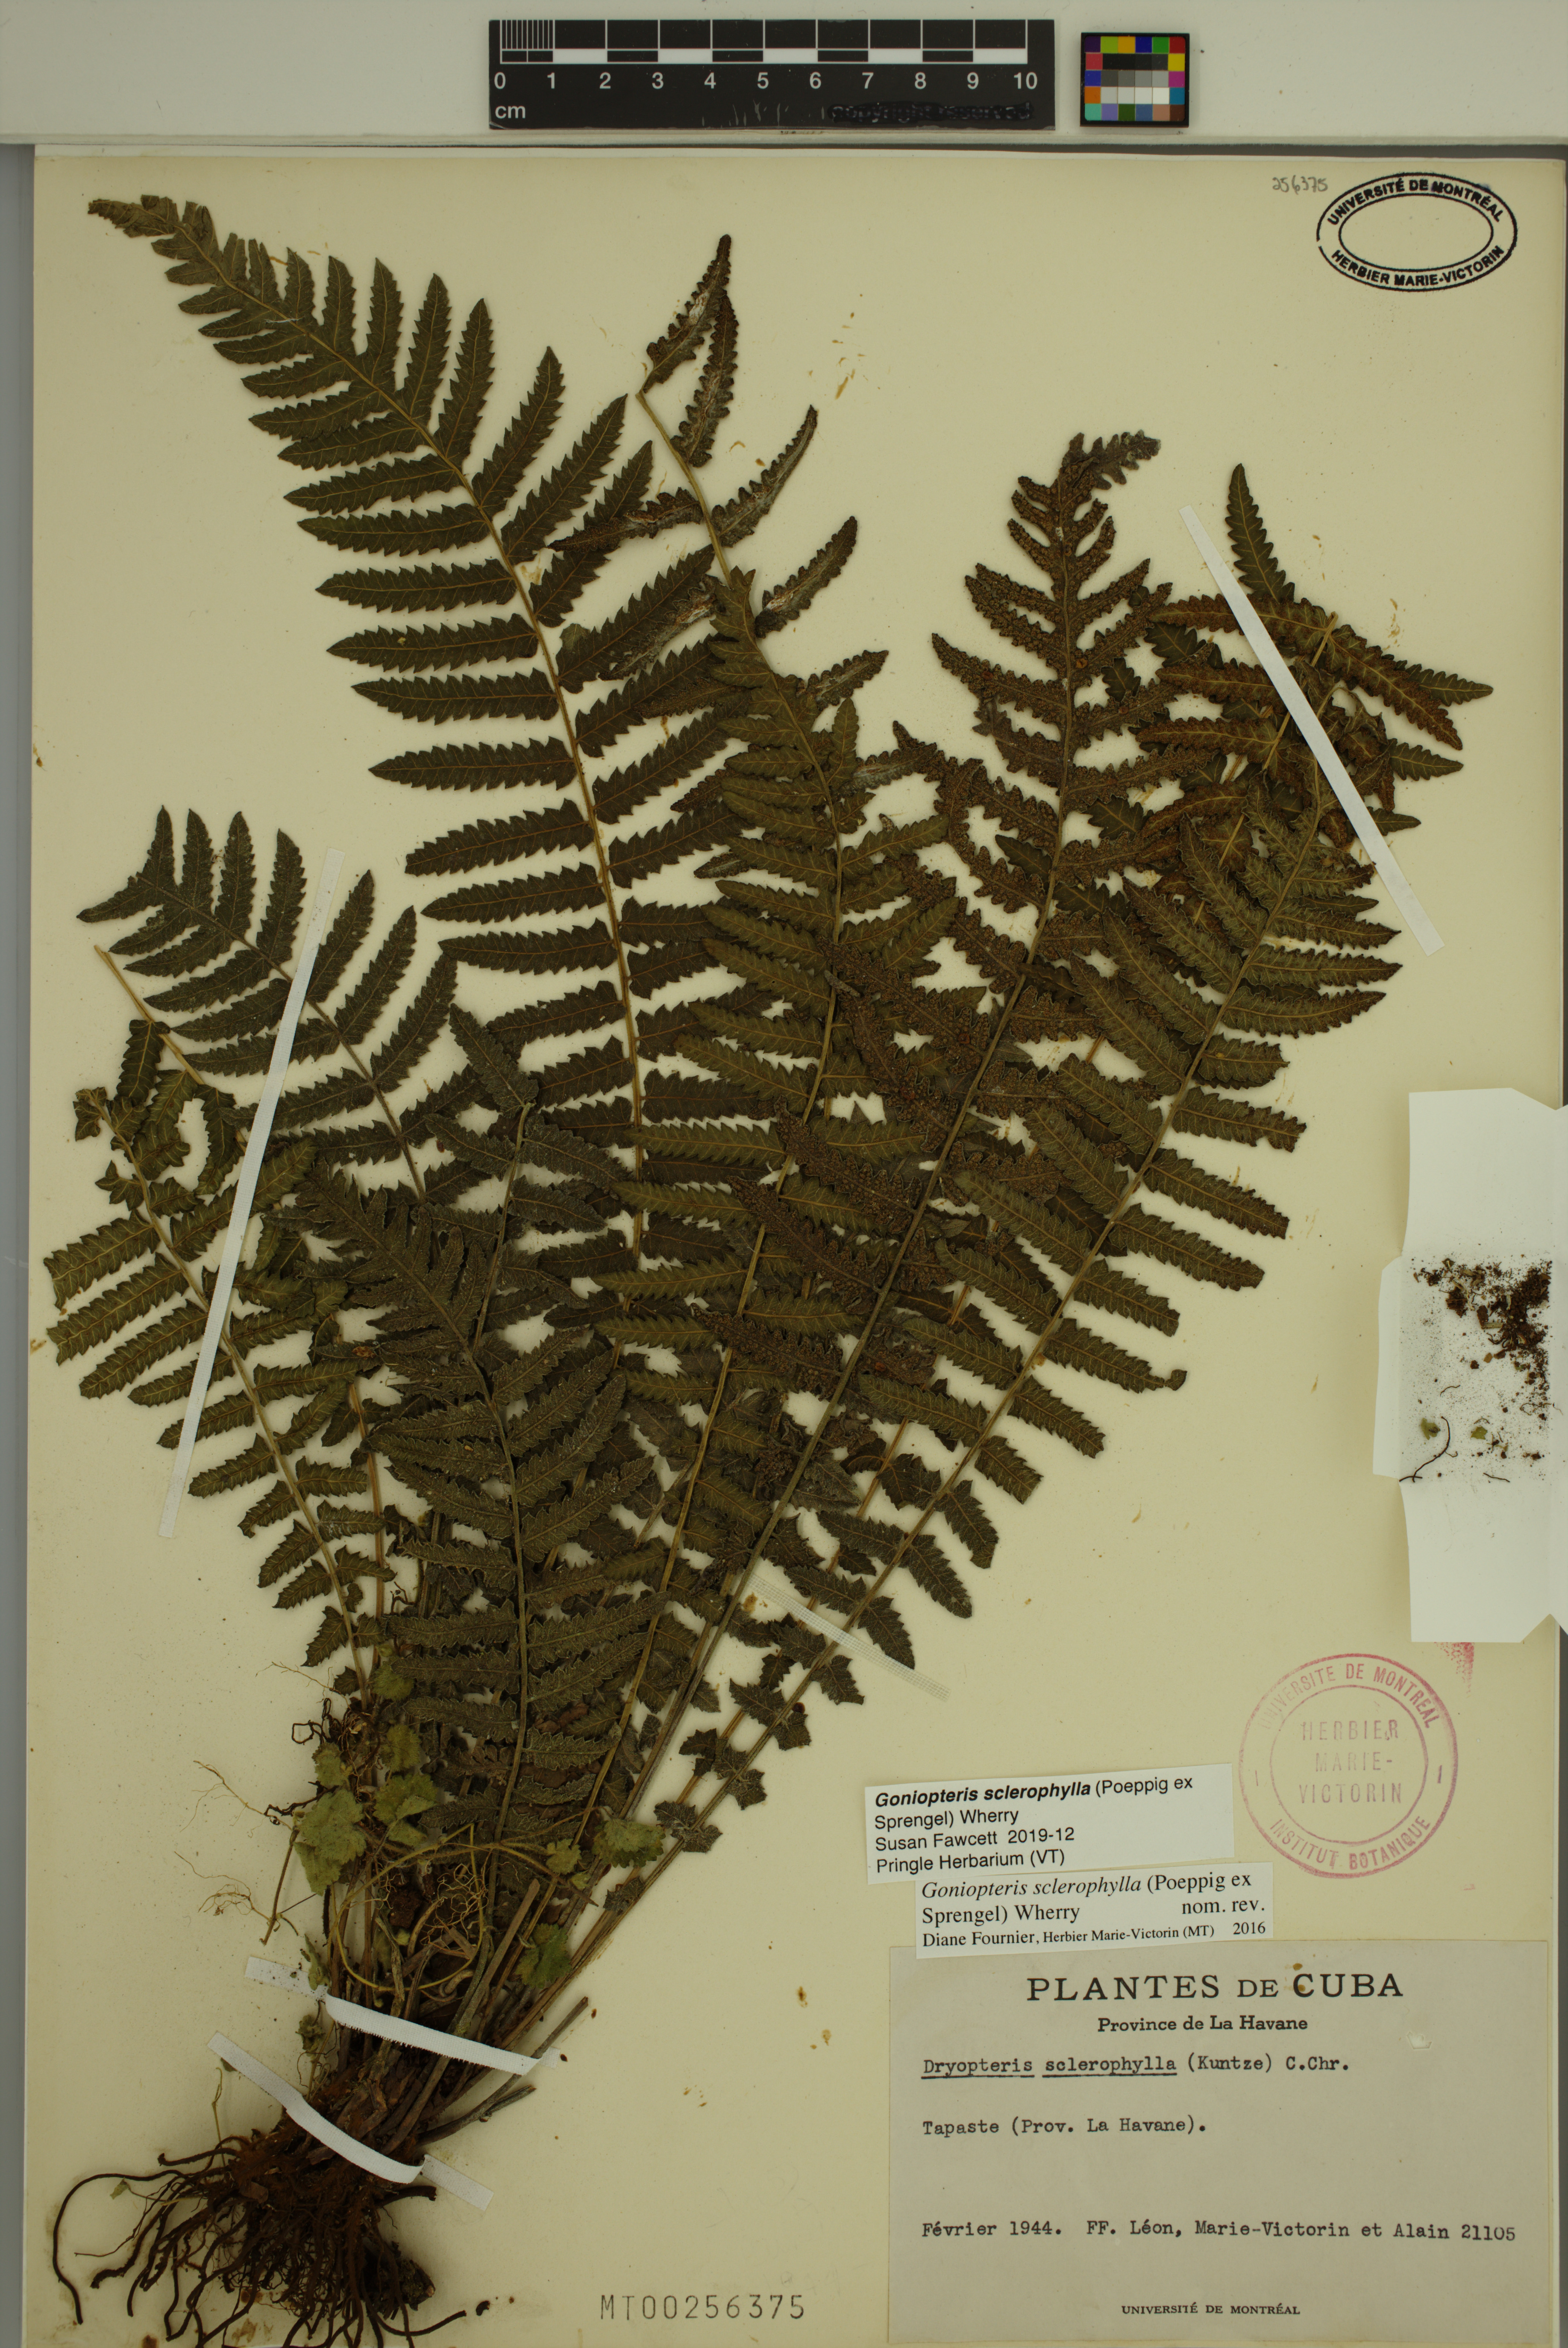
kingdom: Plantae
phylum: Tracheophyta
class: Polypodiopsida
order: Polypodiales
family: Thelypteridaceae
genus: Goniopteris
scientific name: Goniopteris sclerophylla
